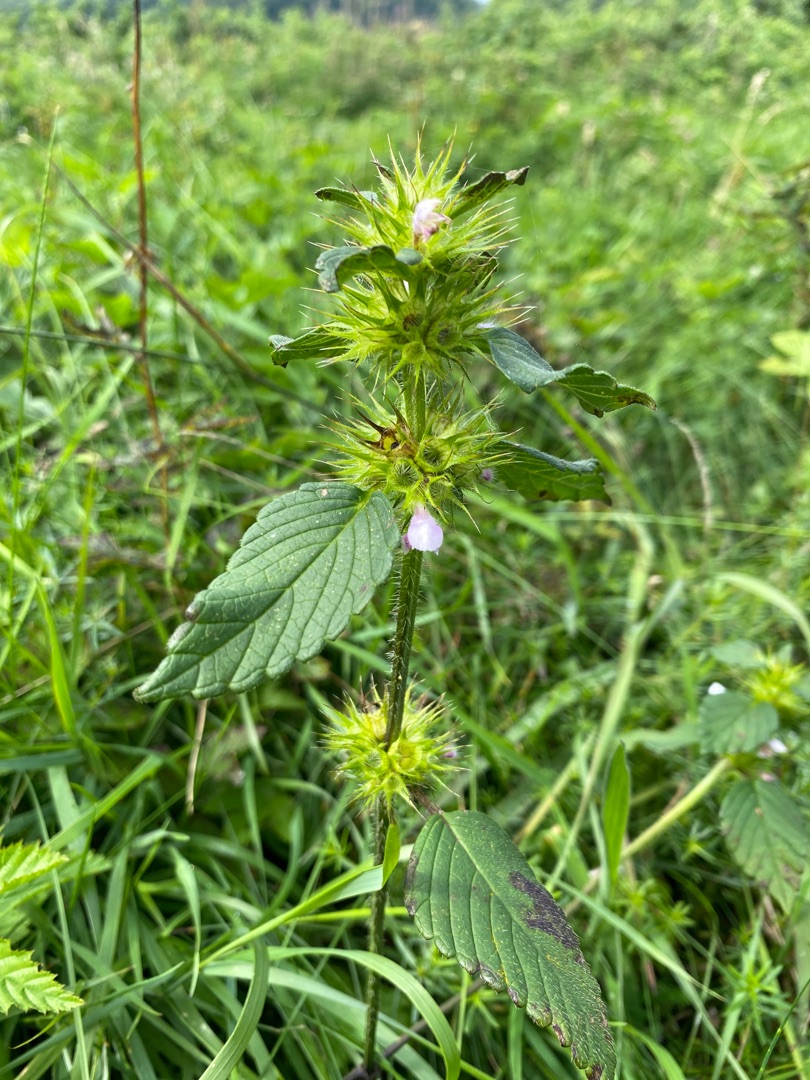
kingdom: Plantae
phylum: Tracheophyta
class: Magnoliopsida
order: Lamiales
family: Lamiaceae
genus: Galeopsis
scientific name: Galeopsis
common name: Hanekroslægten
